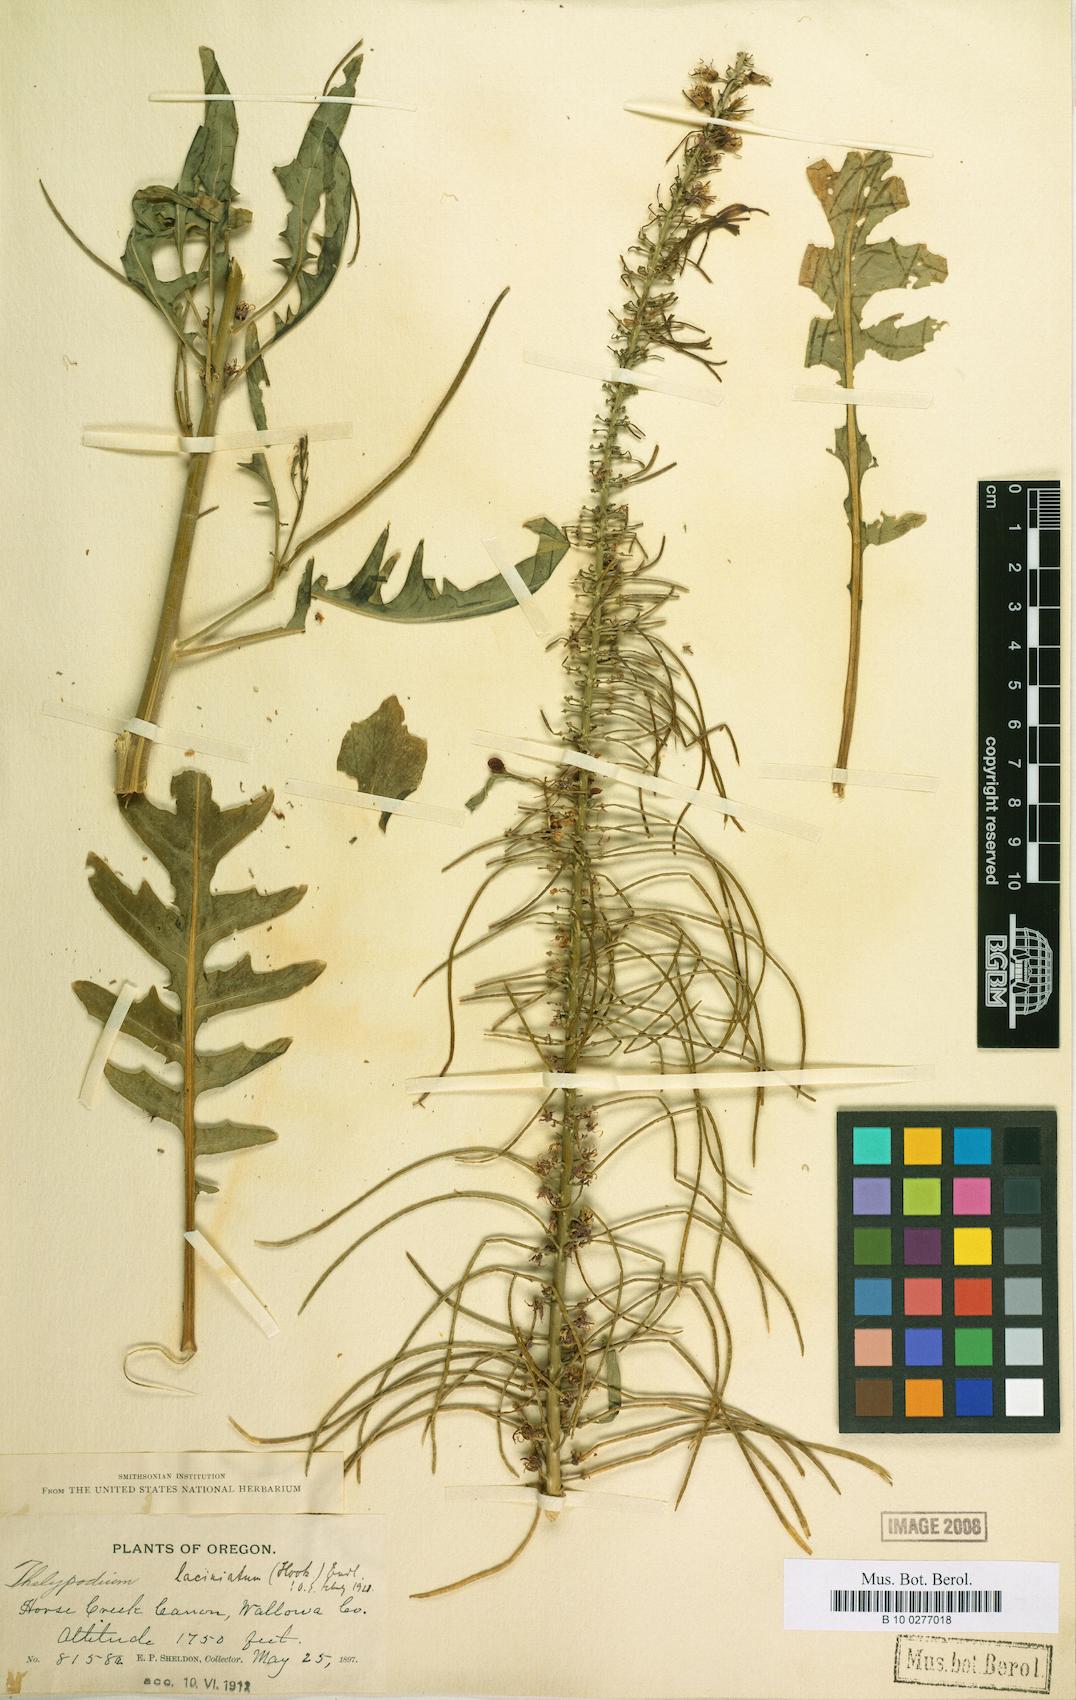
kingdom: Plantae
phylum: Tracheophyta
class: Magnoliopsida
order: Brassicales
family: Brassicaceae
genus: Thelypodium
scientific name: Thelypodium laciniatum
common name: Cut-leaved thelypody
